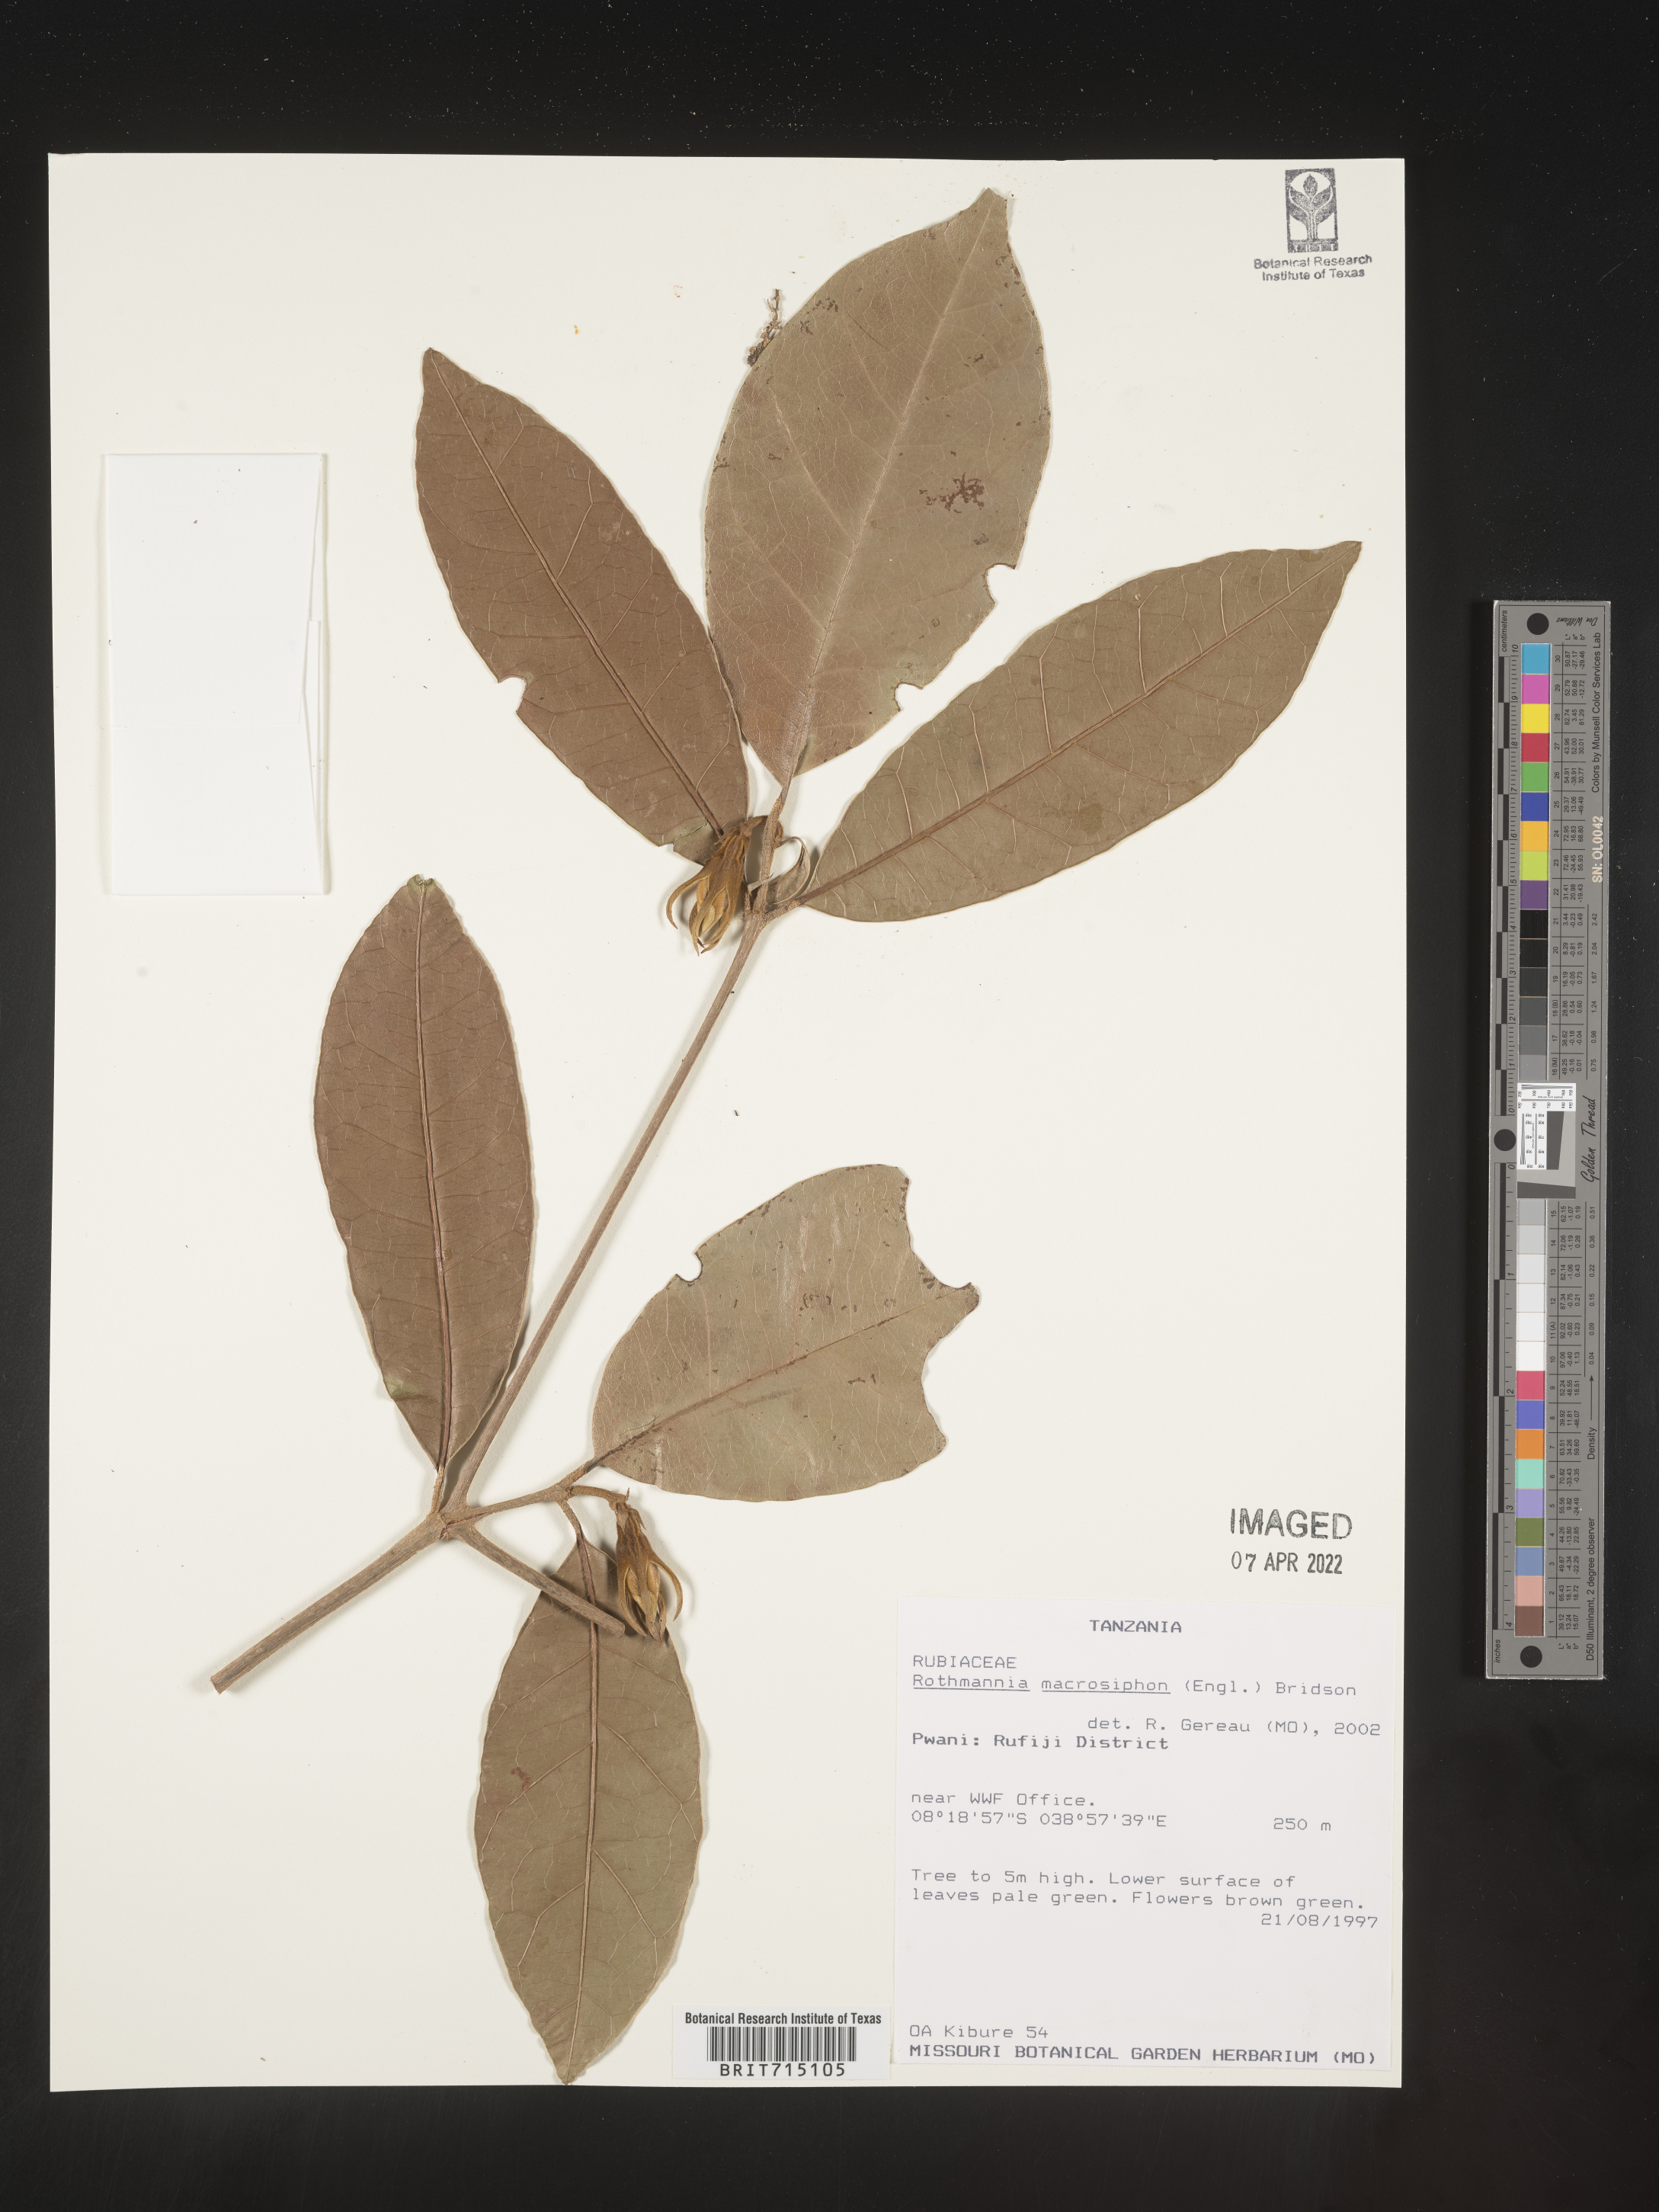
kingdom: Plantae
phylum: Tracheophyta
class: Magnoliopsida
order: Gentianales
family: Rubiaceae
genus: Rothmannia
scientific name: Rothmannia
